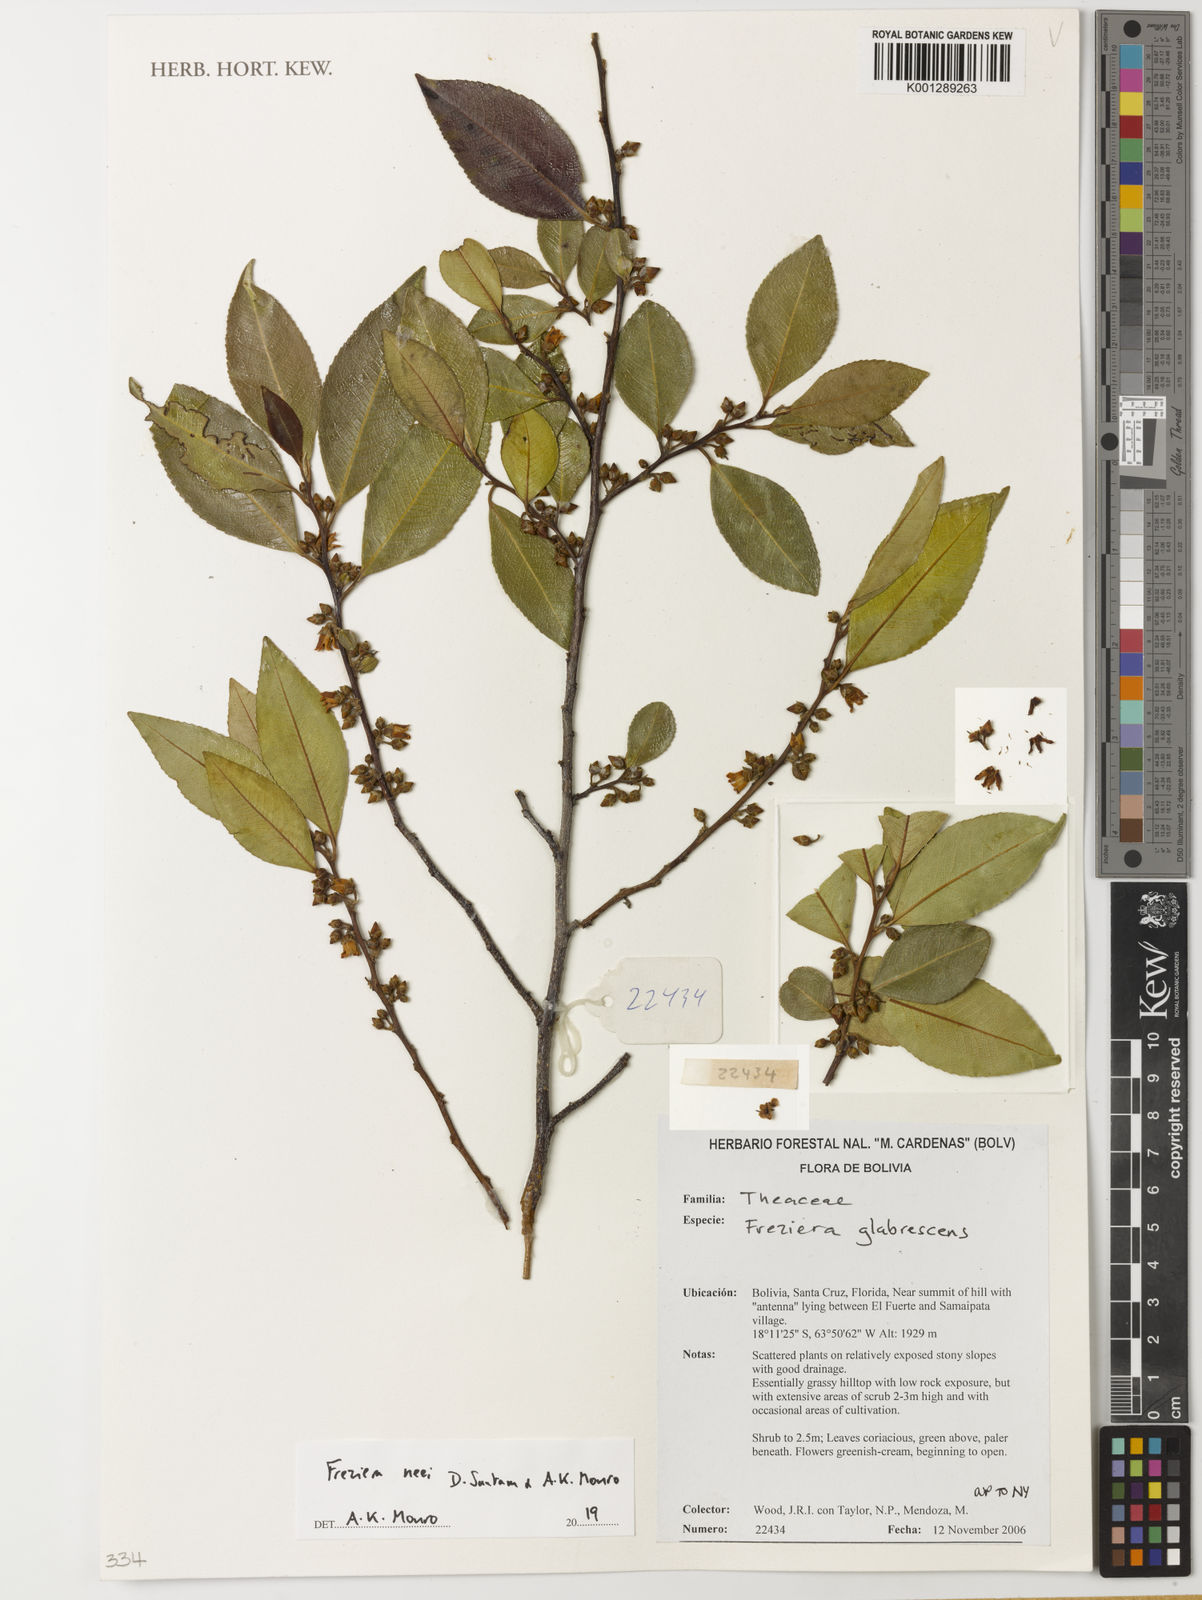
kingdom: Plantae
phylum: Tracheophyta
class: Magnoliopsida
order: Ericales
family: Pentaphylacaceae
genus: Freziera
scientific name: Freziera
